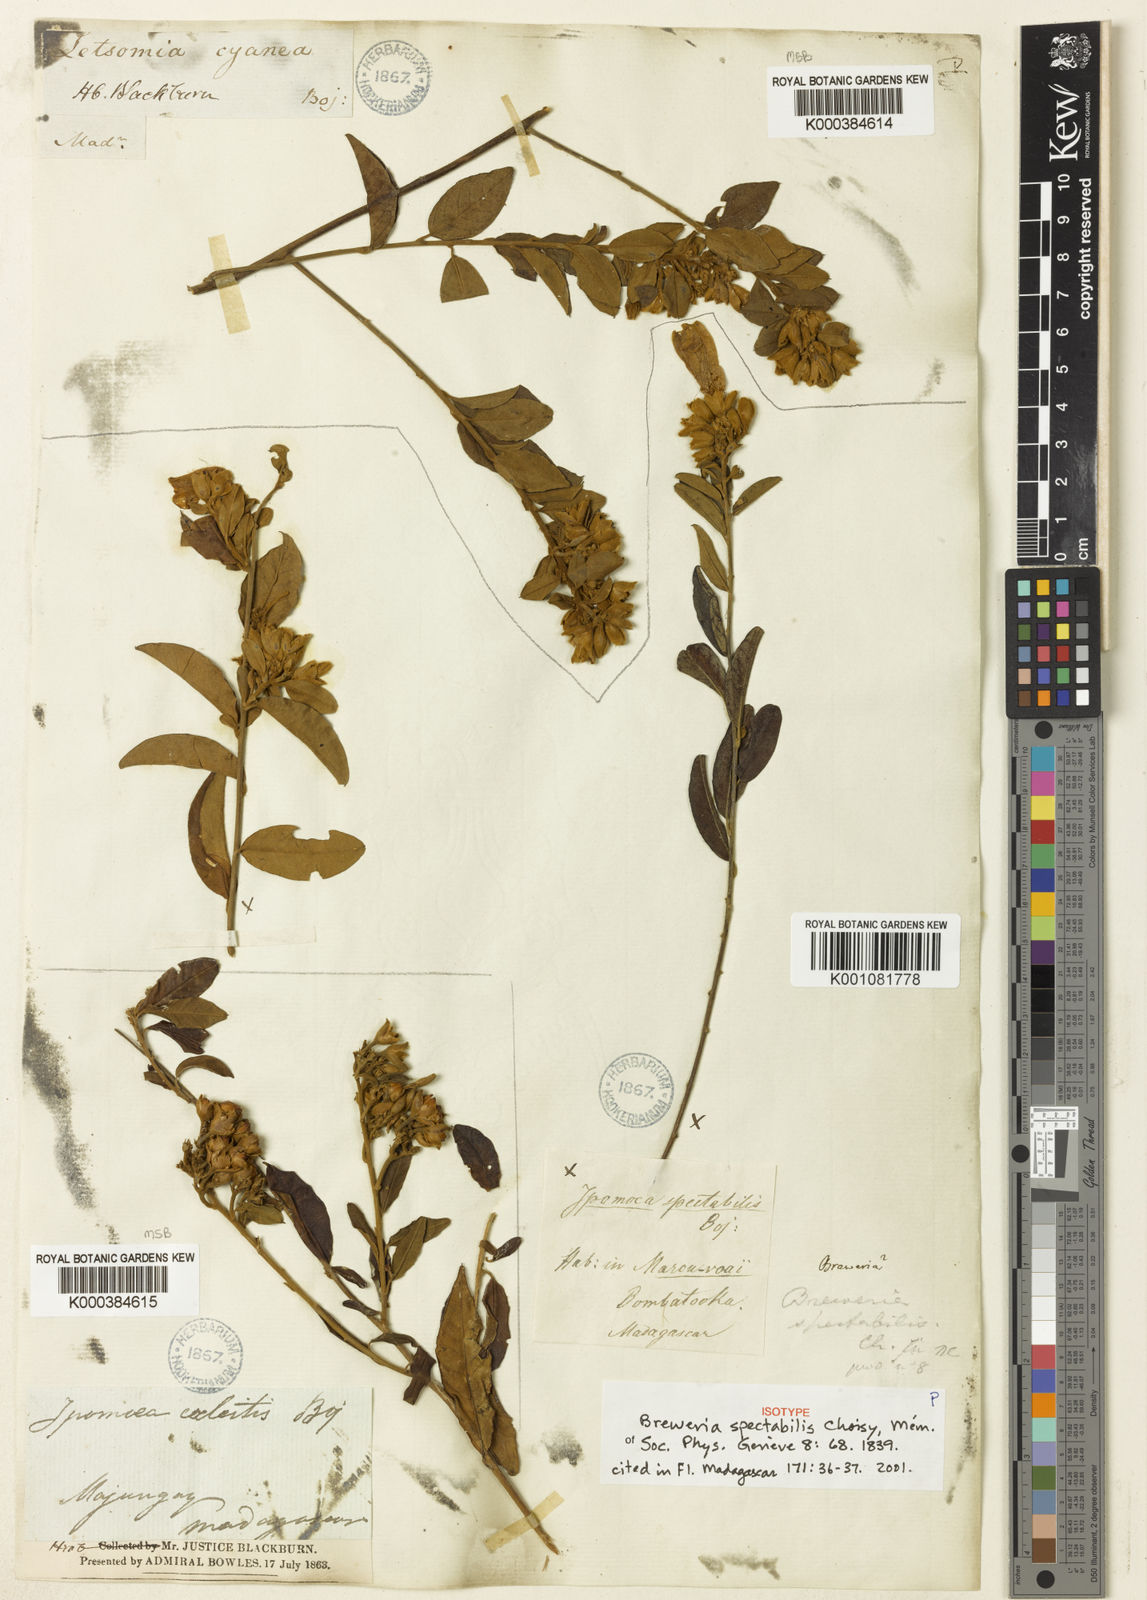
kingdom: Plantae
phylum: Tracheophyta
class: Magnoliopsida
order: Solanales
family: Convolvulaceae
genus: Bonamia
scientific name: Bonamia spectabilis
